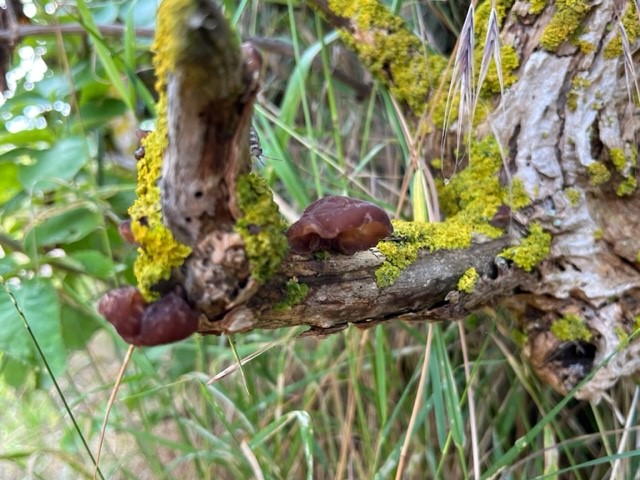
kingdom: Fungi
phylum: Basidiomycota
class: Agaricomycetes
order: Auriculariales
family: Auriculariaceae
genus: Auricularia
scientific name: Auricularia auricula-judae
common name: almindelig judasøre
